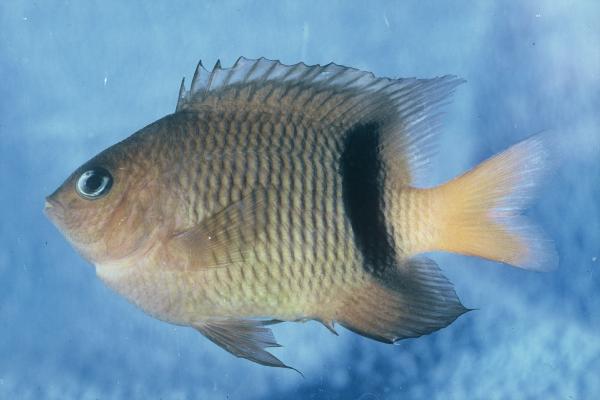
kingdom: Animalia
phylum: Chordata
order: Perciformes
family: Pomacentridae
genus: Plectroglyphidodon
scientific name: Plectroglyphidodon dickii
